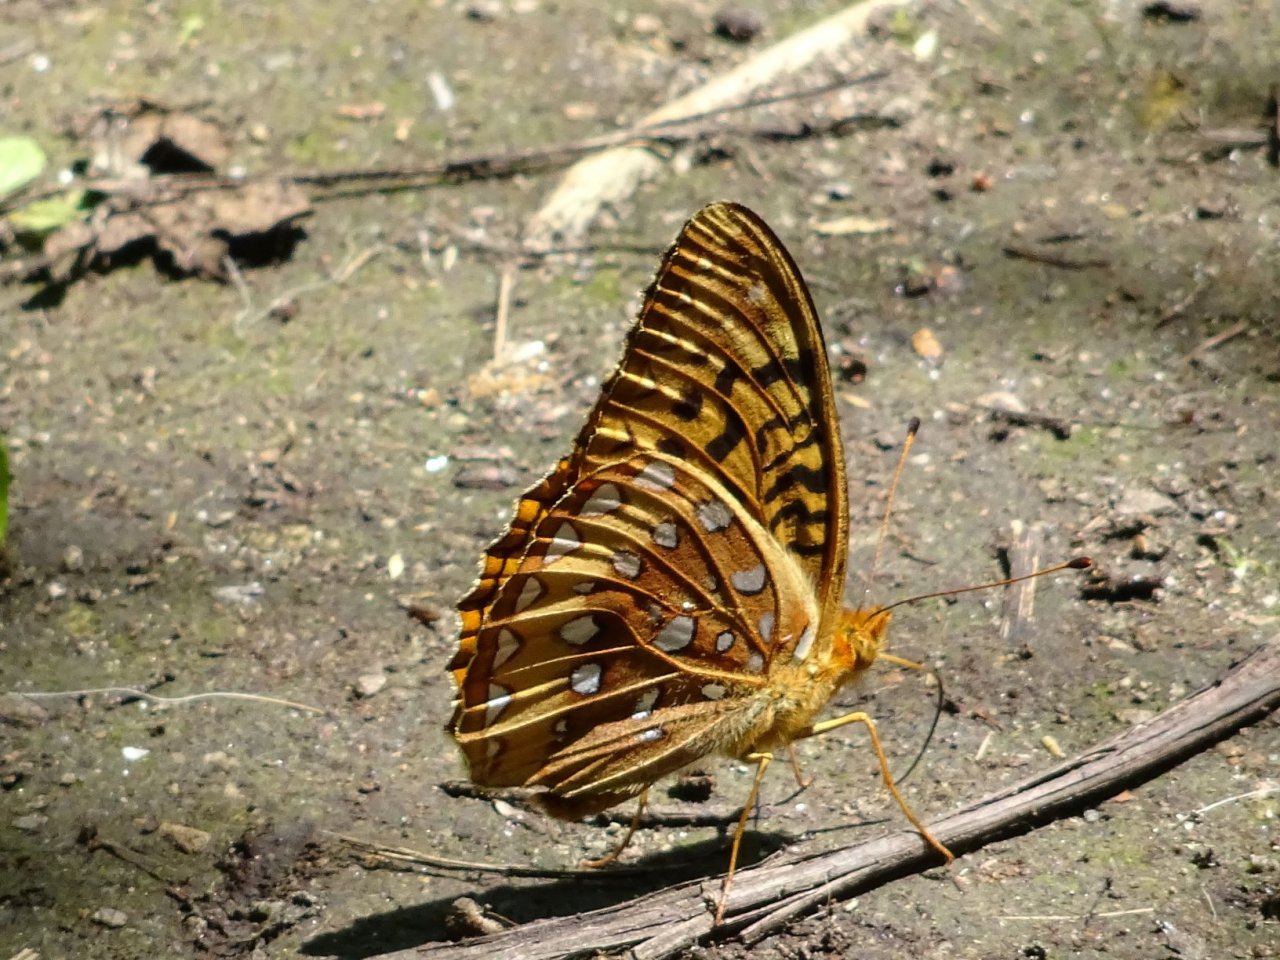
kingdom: Animalia
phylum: Arthropoda
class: Insecta
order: Lepidoptera
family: Nymphalidae
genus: Speyeria
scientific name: Speyeria cybele
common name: Great Spangled Fritillary
